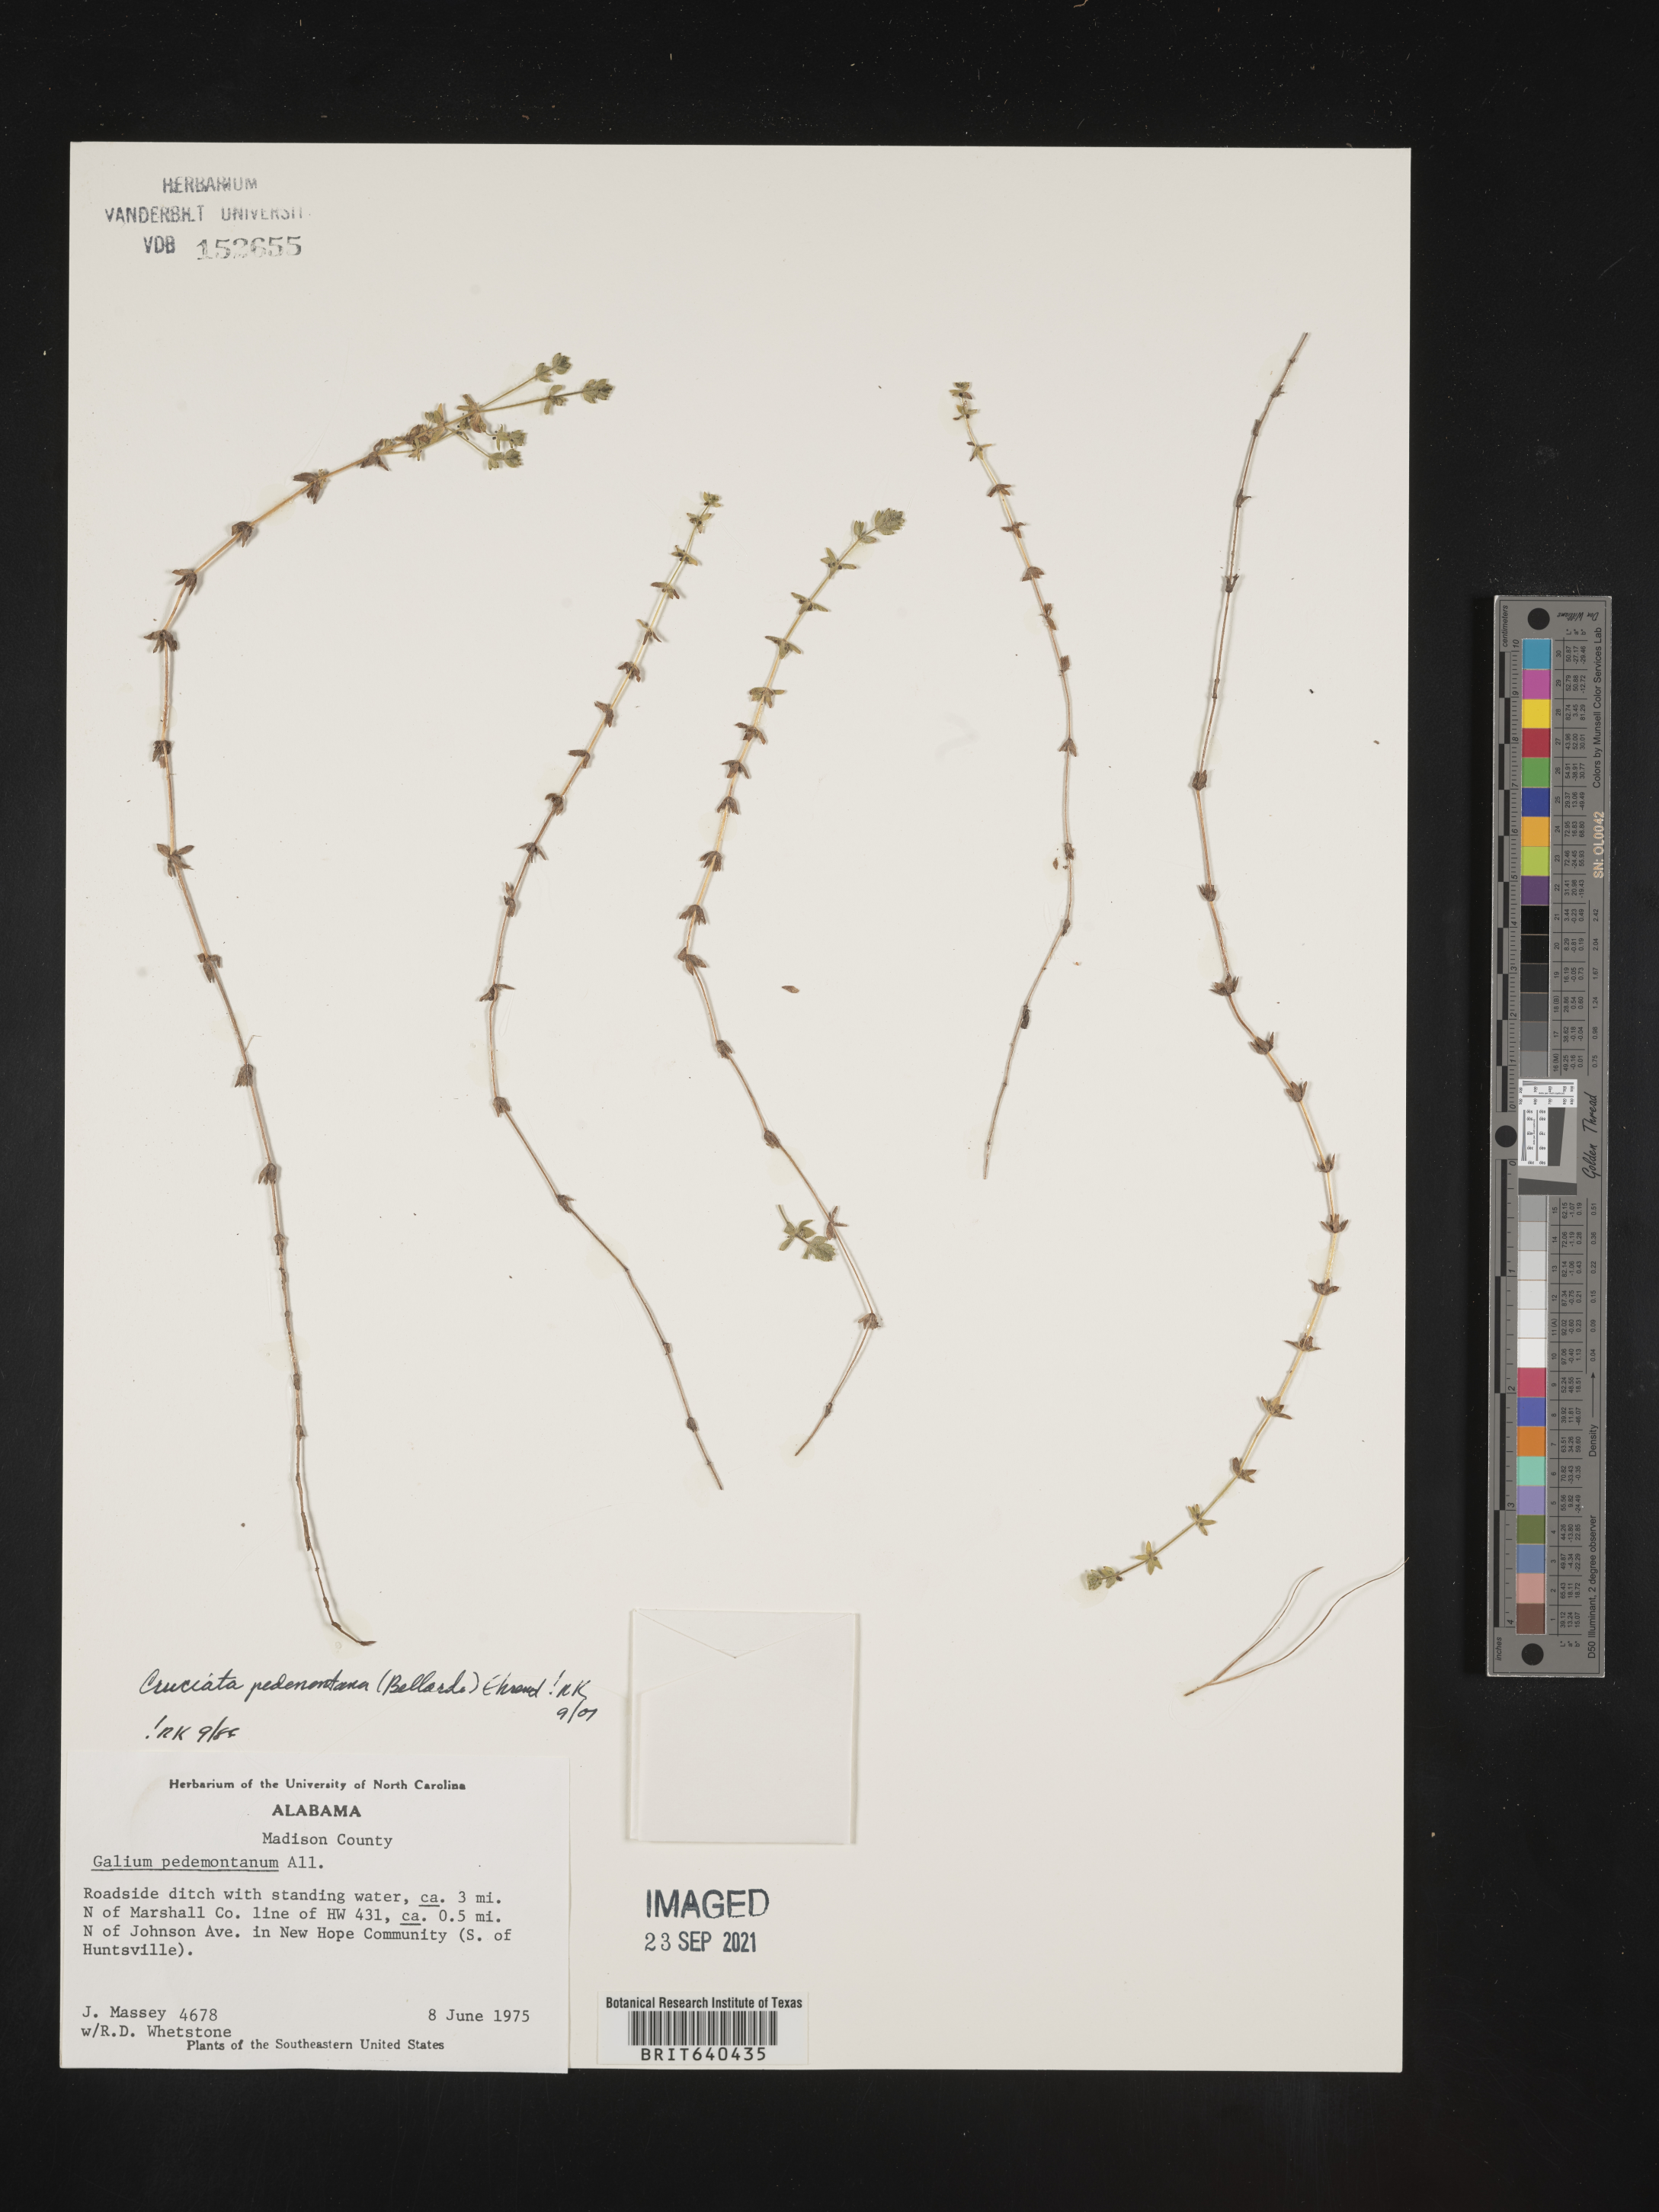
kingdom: Plantae
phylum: Tracheophyta
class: Magnoliopsida
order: Gentianales
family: Rubiaceae
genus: Cruciata
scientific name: Cruciata
